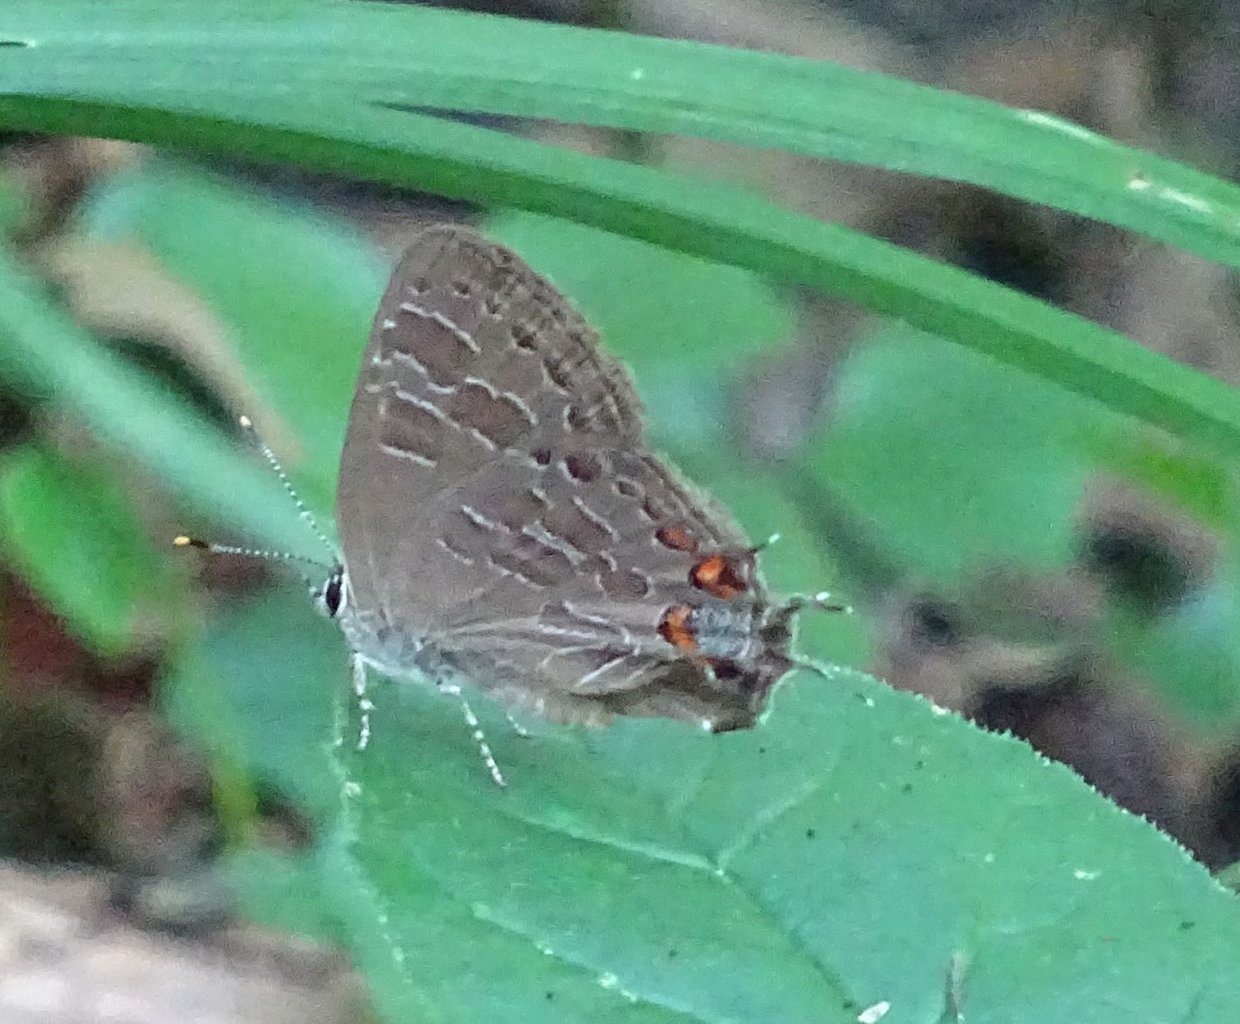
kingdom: Animalia
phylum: Arthropoda
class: Insecta
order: Lepidoptera
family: Lycaenidae
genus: Satyrium
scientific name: Satyrium liparops
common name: Striped Hairstreak
